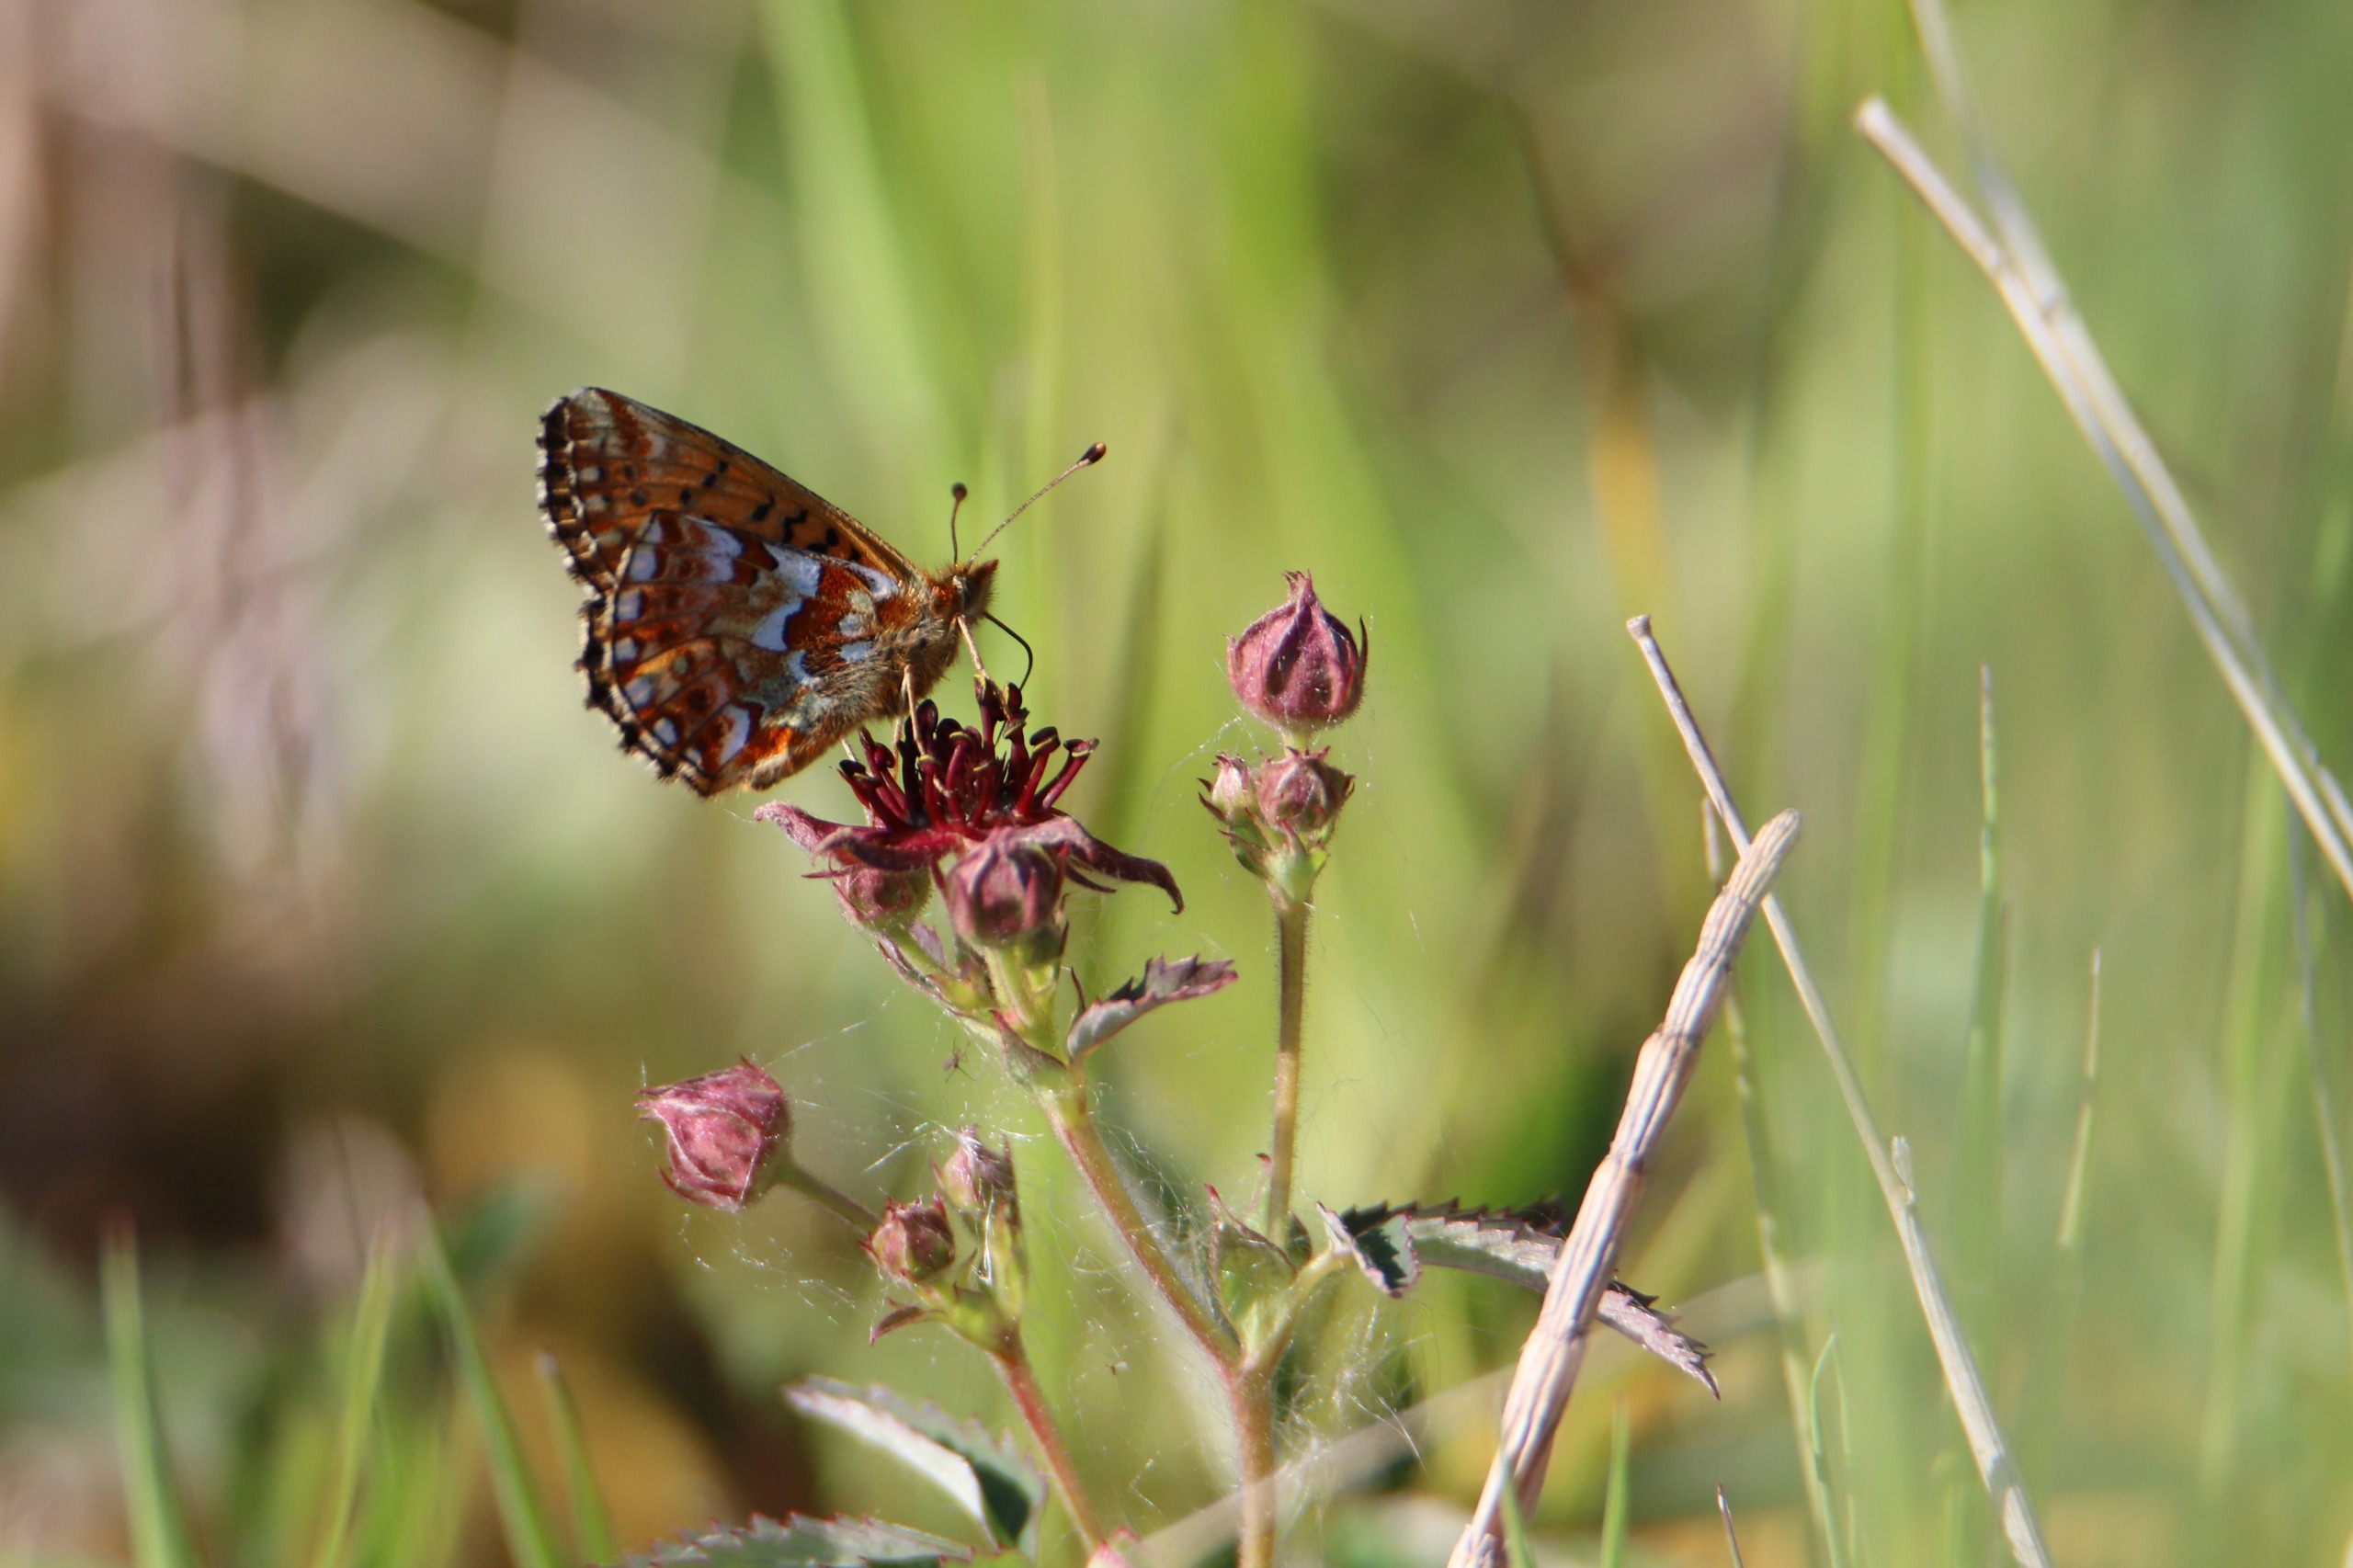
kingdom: Animalia
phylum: Arthropoda
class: Insecta
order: Lepidoptera
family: Nymphalidae
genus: Boloria
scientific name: Boloria aquilonaris
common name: Moseperlemorsommerfugl
